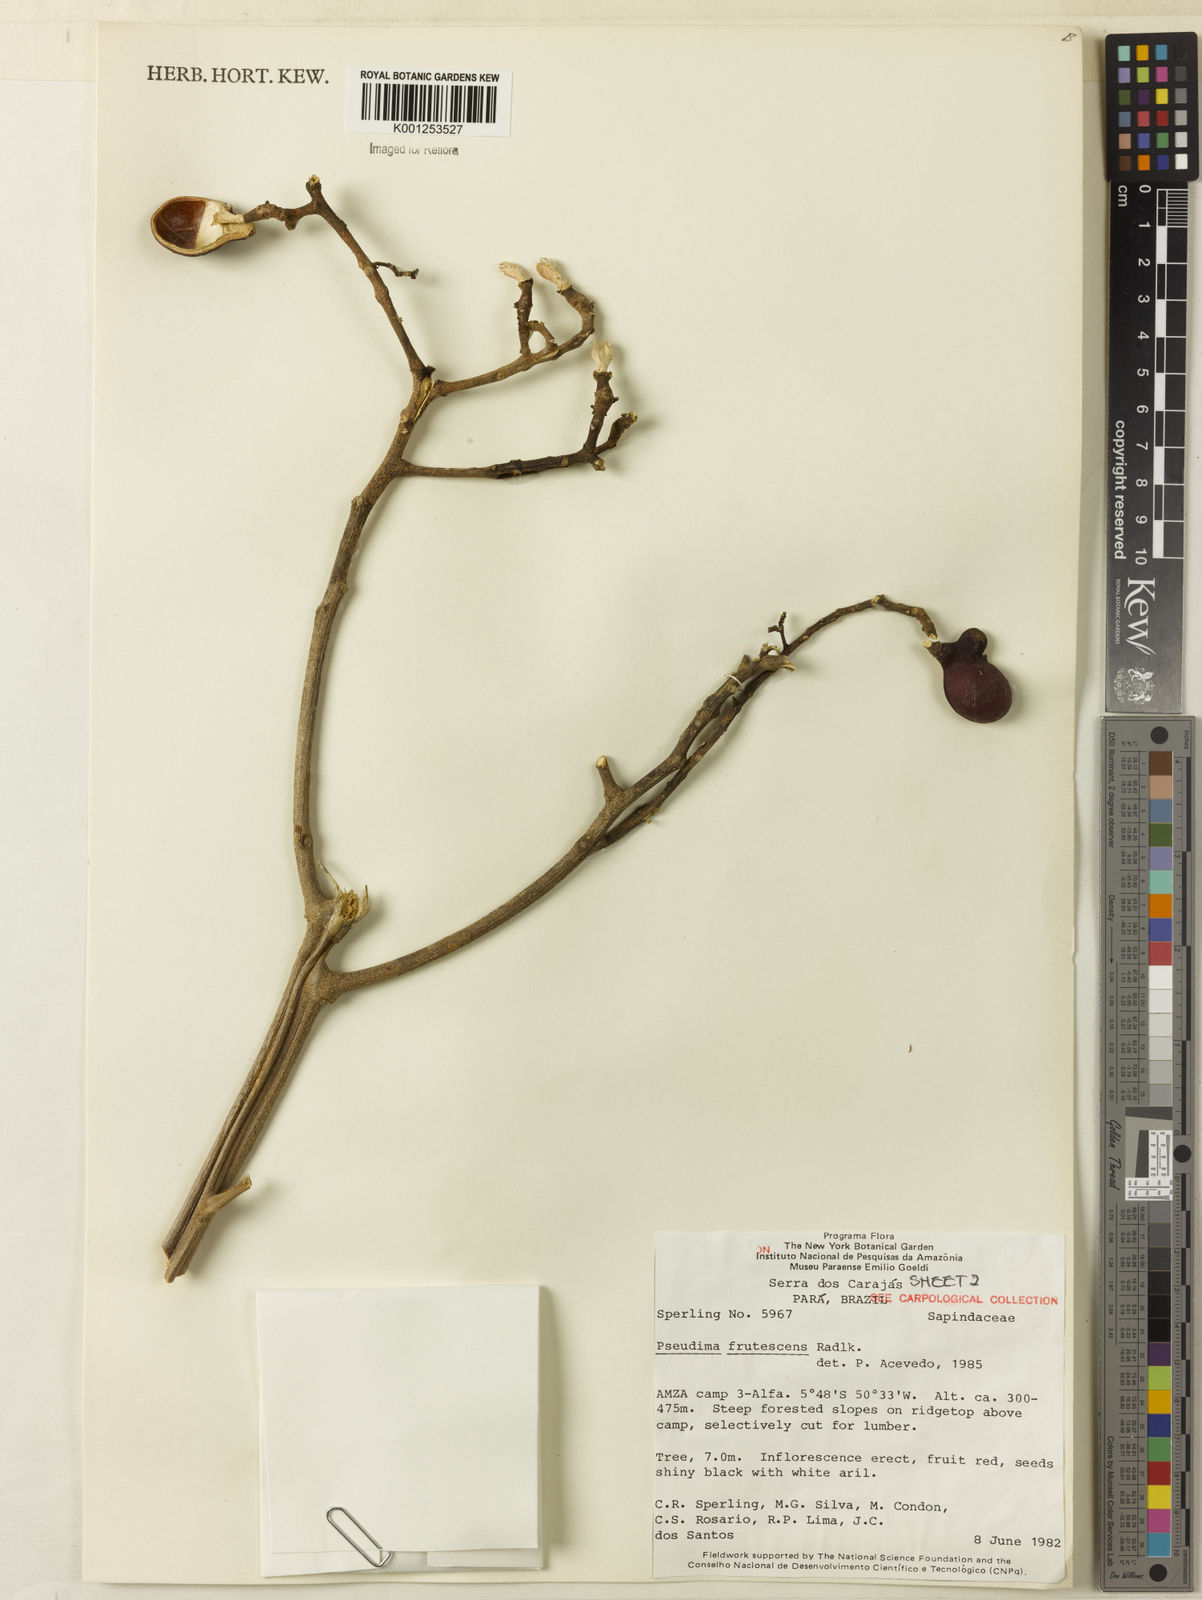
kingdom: Plantae
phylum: Tracheophyta
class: Magnoliopsida
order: Sapindales
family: Sapindaceae
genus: Pseudima
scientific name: Pseudima frutescens
